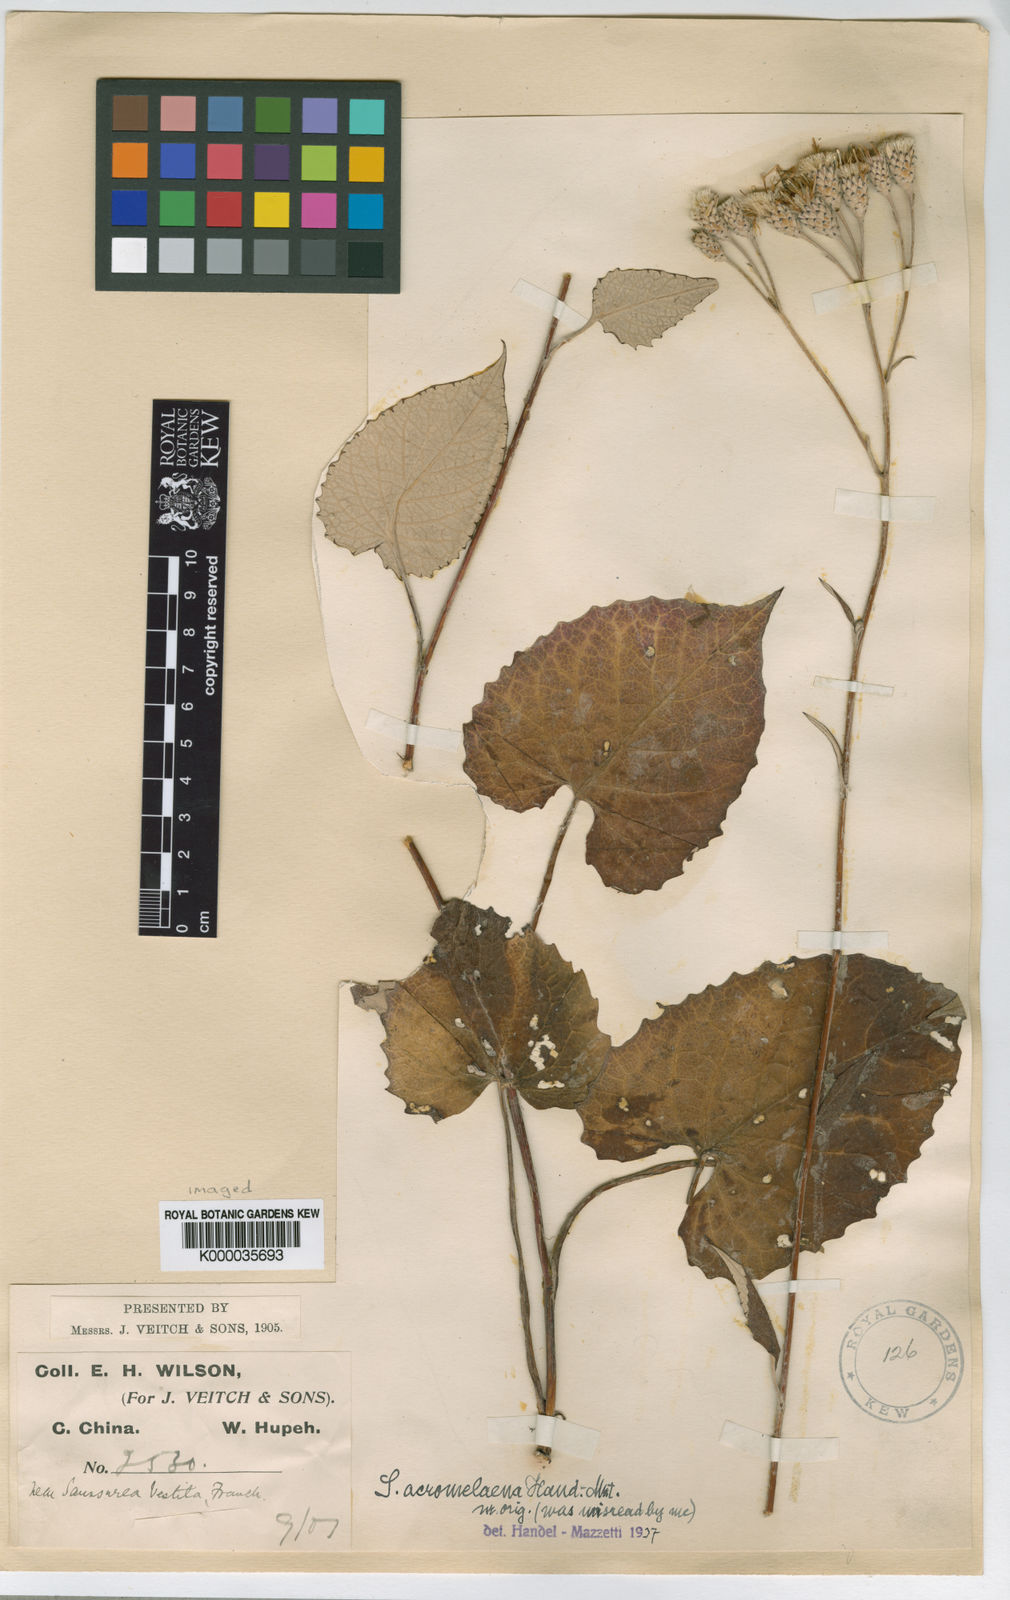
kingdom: Plantae
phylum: Tracheophyta
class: Magnoliopsida
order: Asterales
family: Asteraceae
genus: Saussurea
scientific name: Saussurea acromelaena
